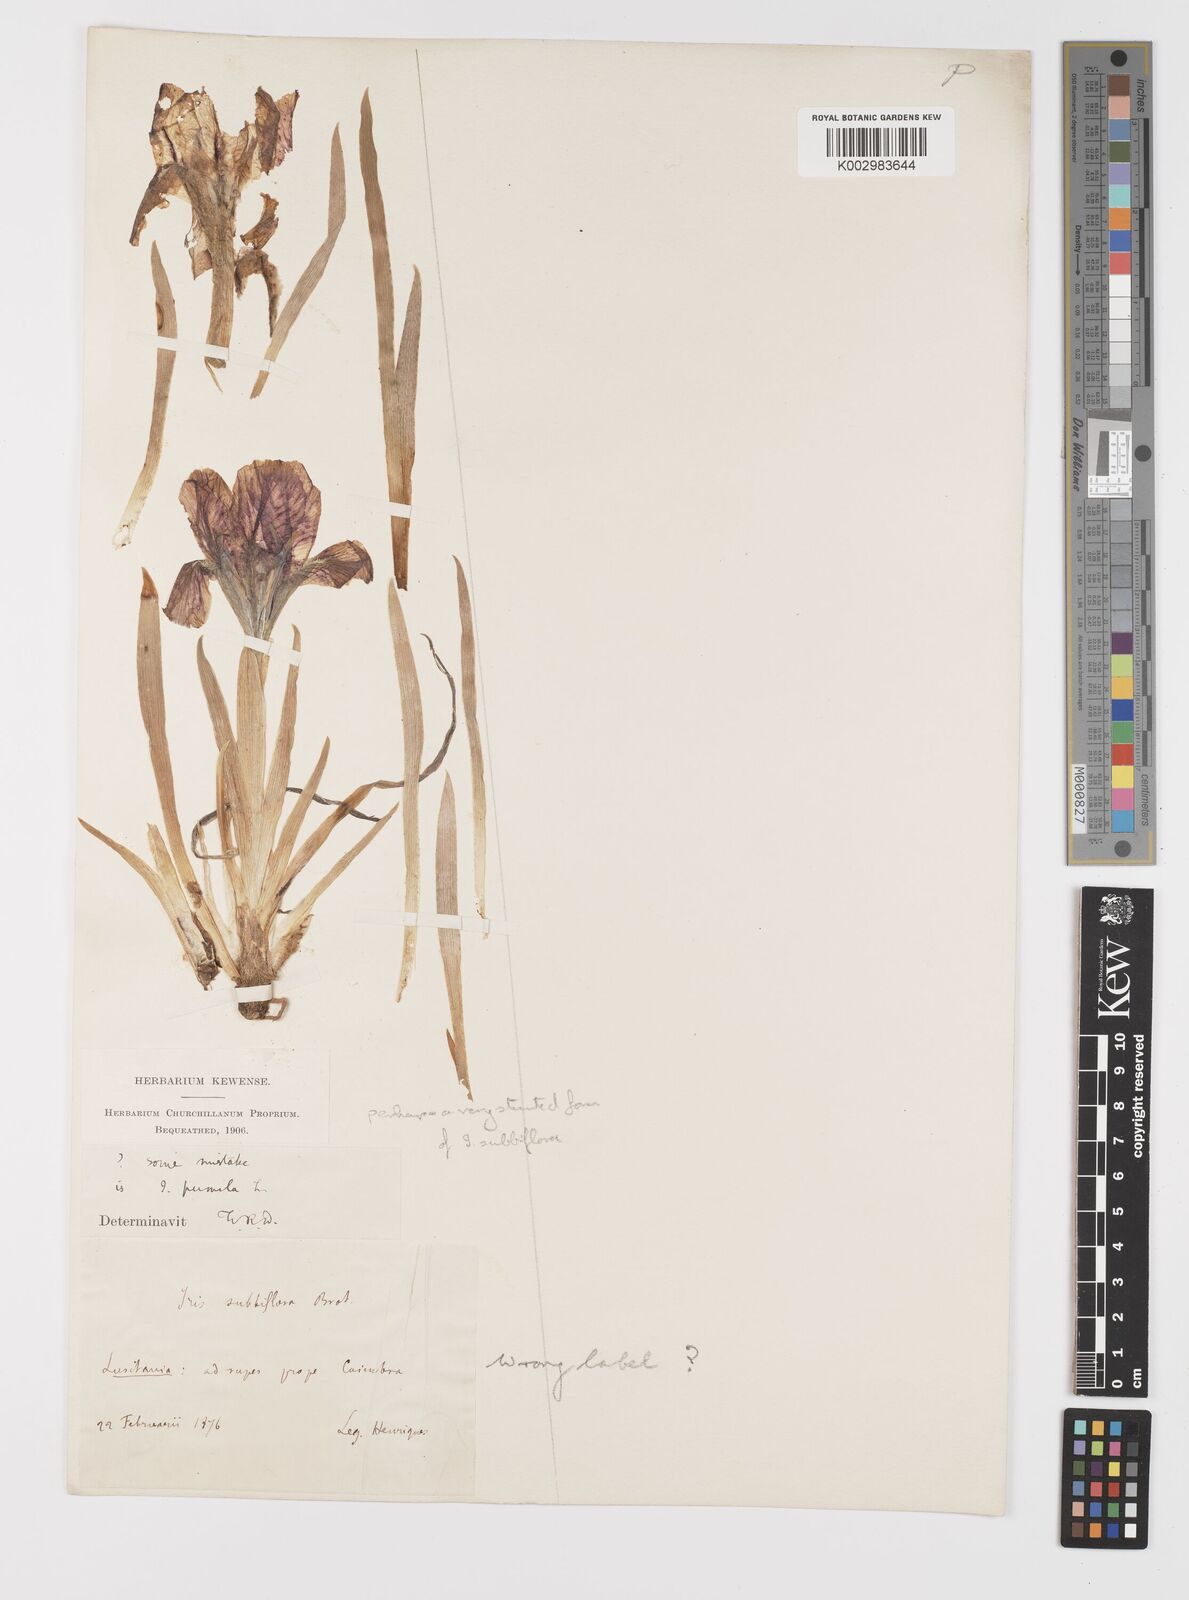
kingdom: Plantae
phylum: Tracheophyta
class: Liliopsida
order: Asparagales
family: Iridaceae
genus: Iris
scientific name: Iris lutescens
